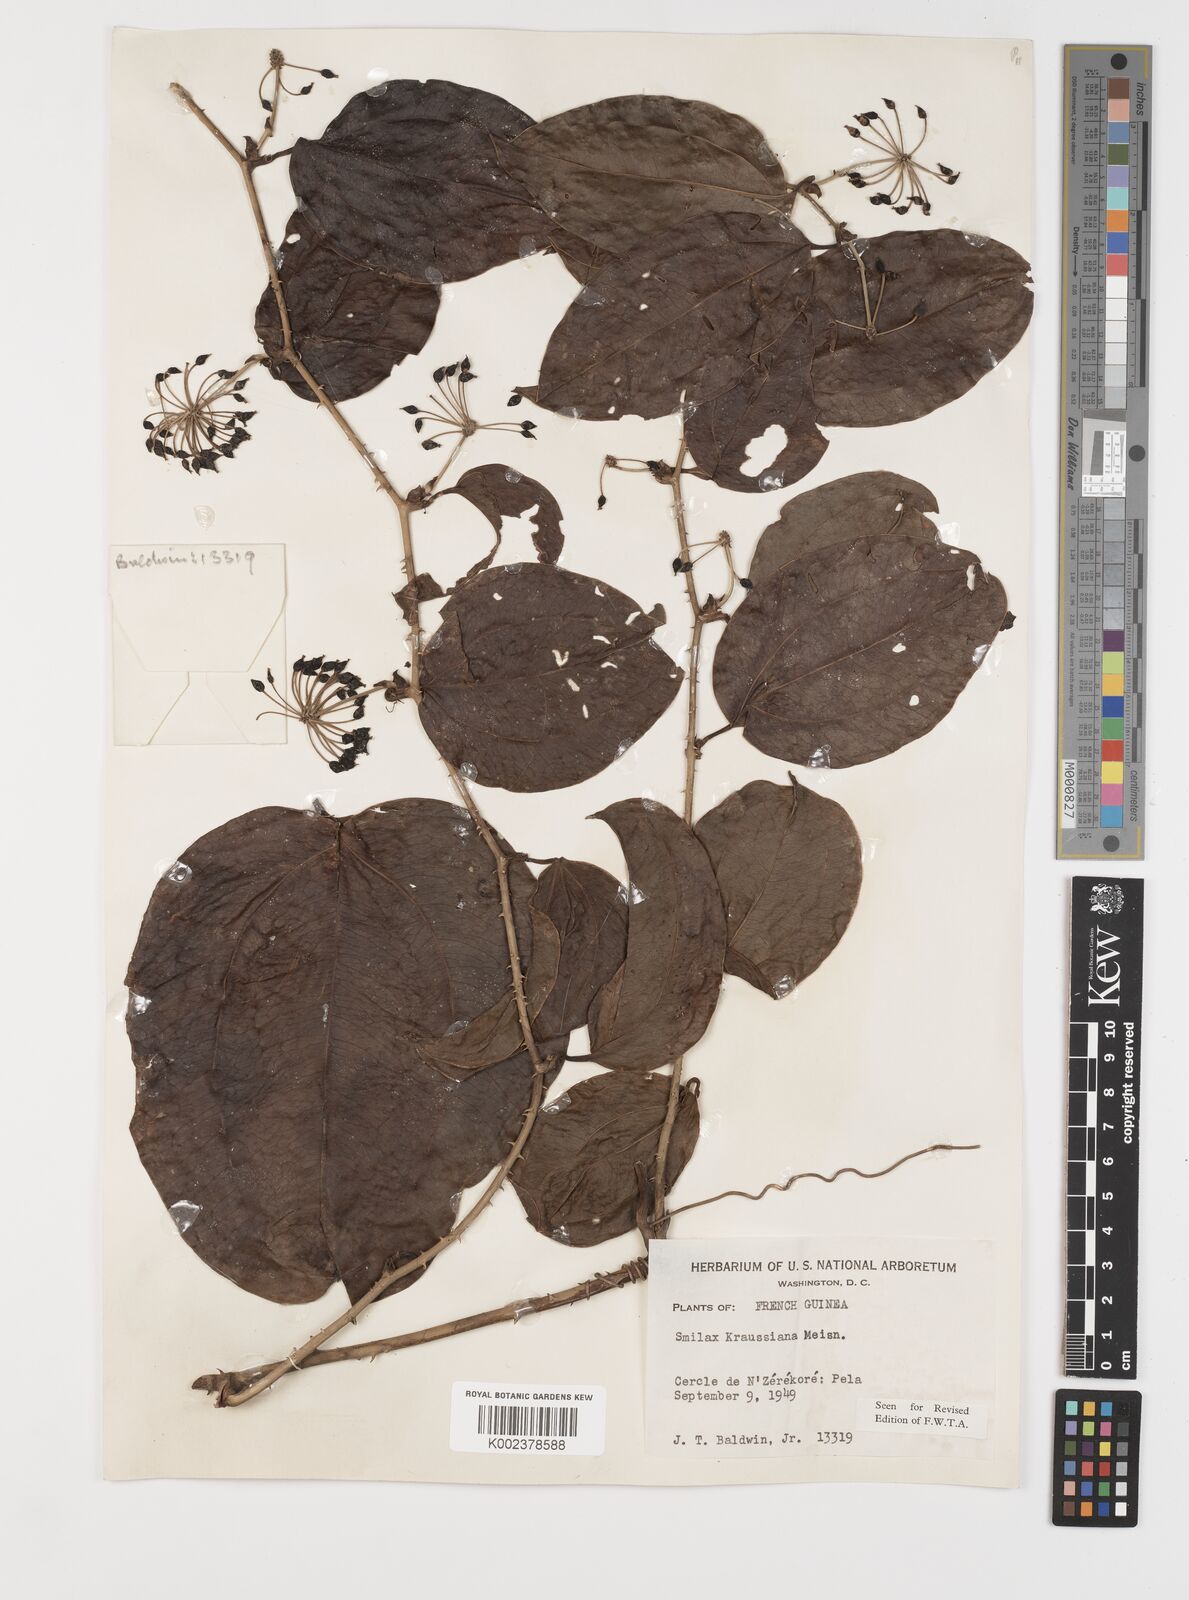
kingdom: Plantae
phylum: Tracheophyta
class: Liliopsida
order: Liliales
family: Smilacaceae
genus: Smilax
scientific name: Smilax anceps
